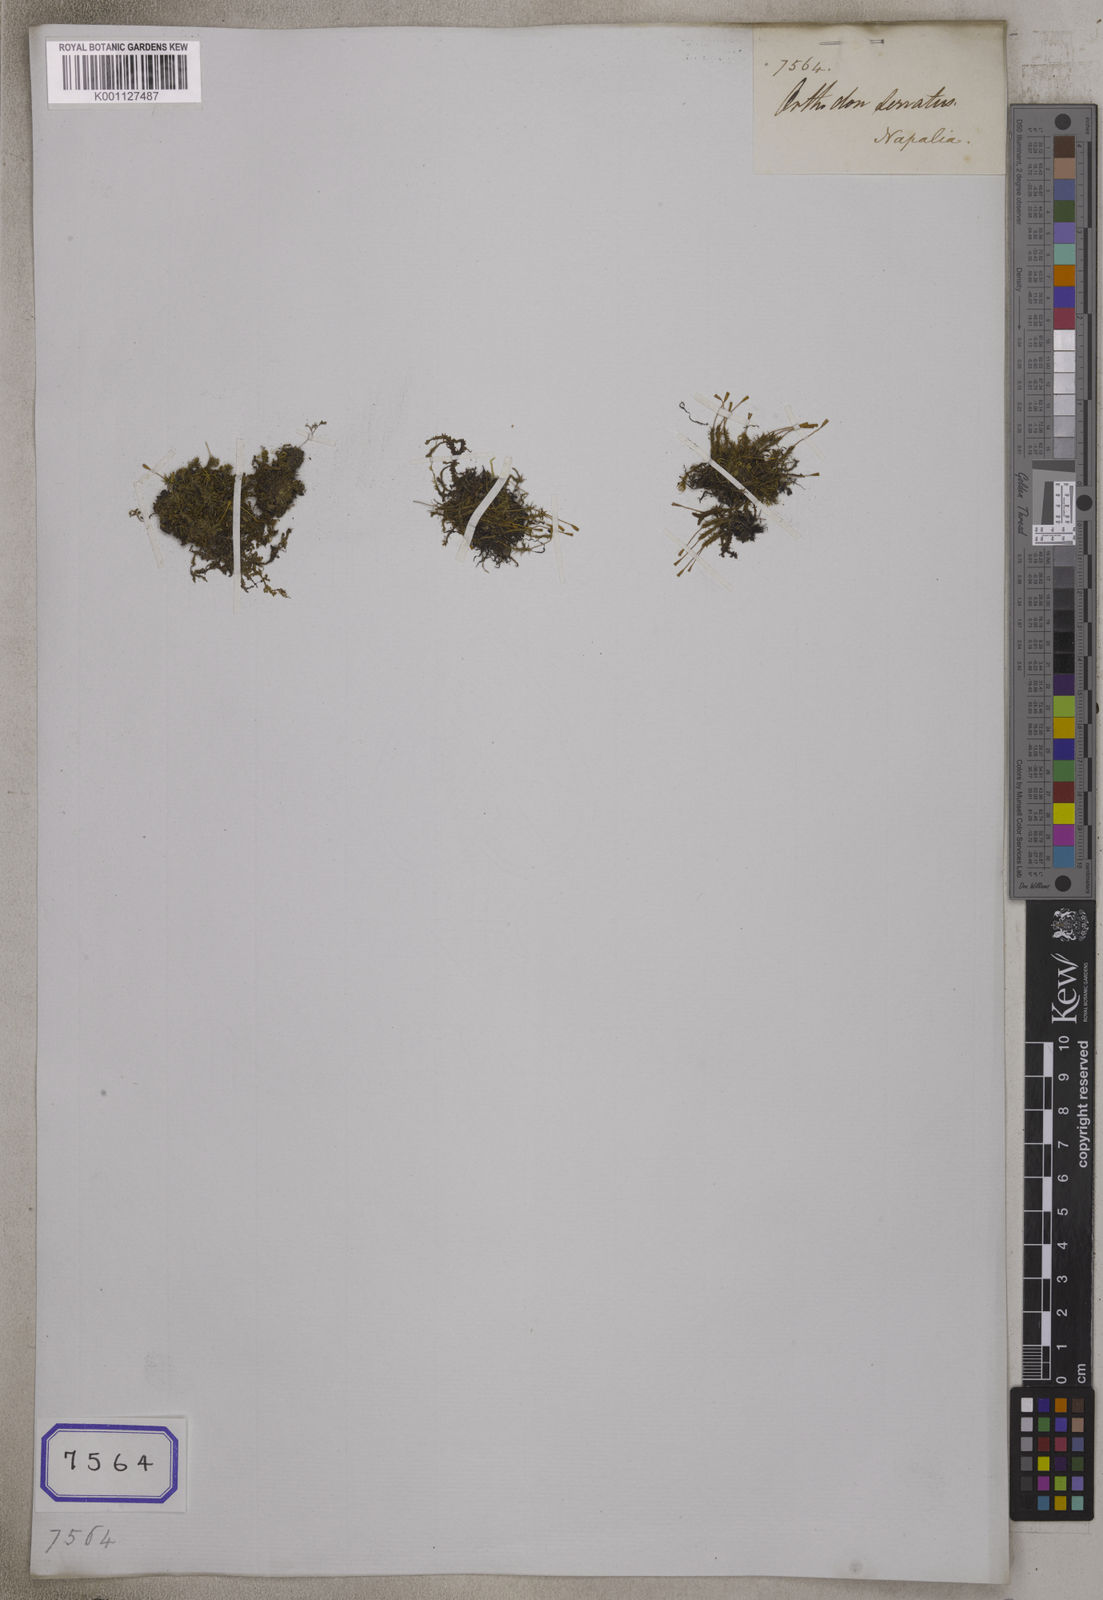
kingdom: Plantae
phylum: Tracheophyta
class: Magnoliopsida
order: Lamiales
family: Lamiaceae
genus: Mosla
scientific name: Mosla
